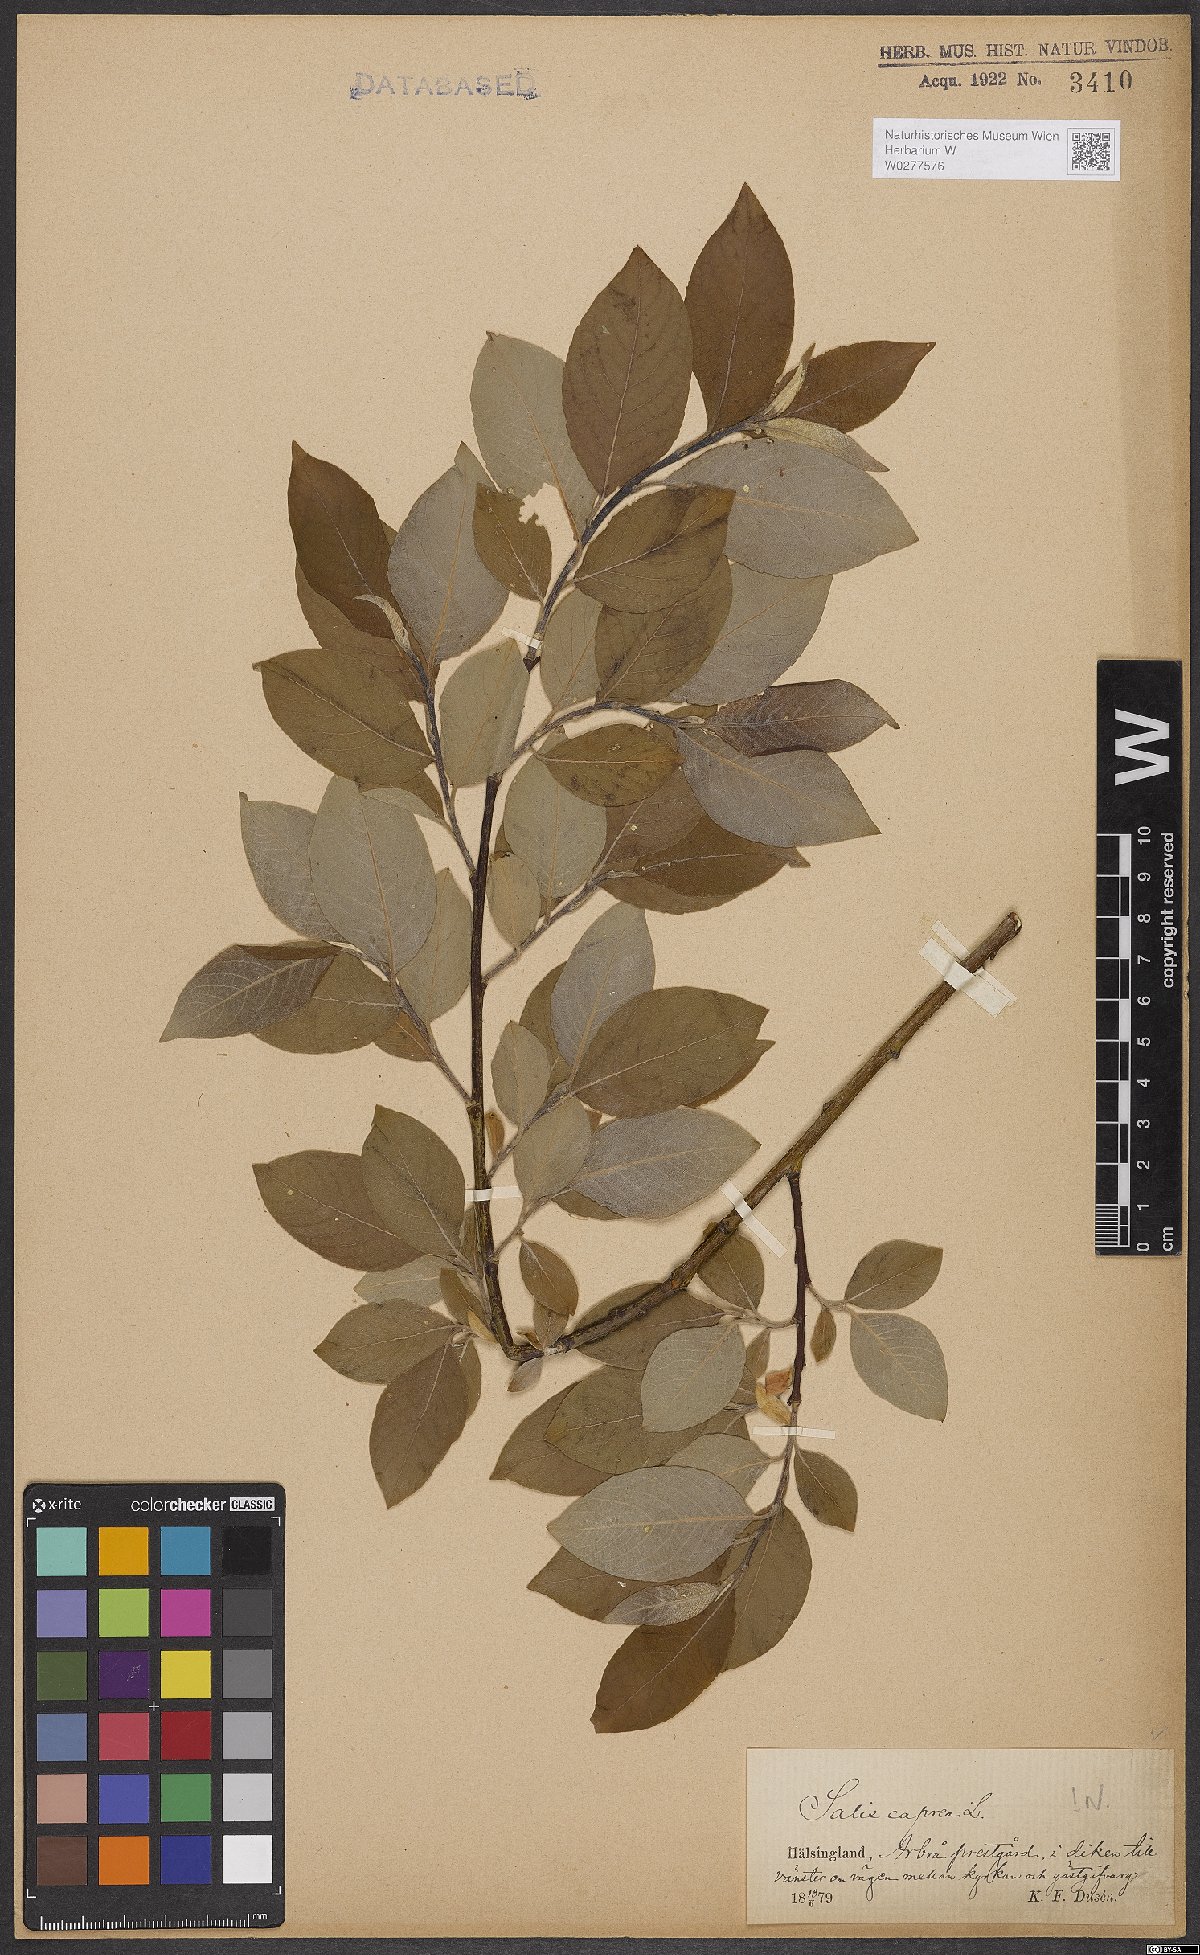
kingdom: Plantae
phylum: Tracheophyta
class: Magnoliopsida
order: Malpighiales
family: Salicaceae
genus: Salix
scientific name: Salix caprea
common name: Goat willow
